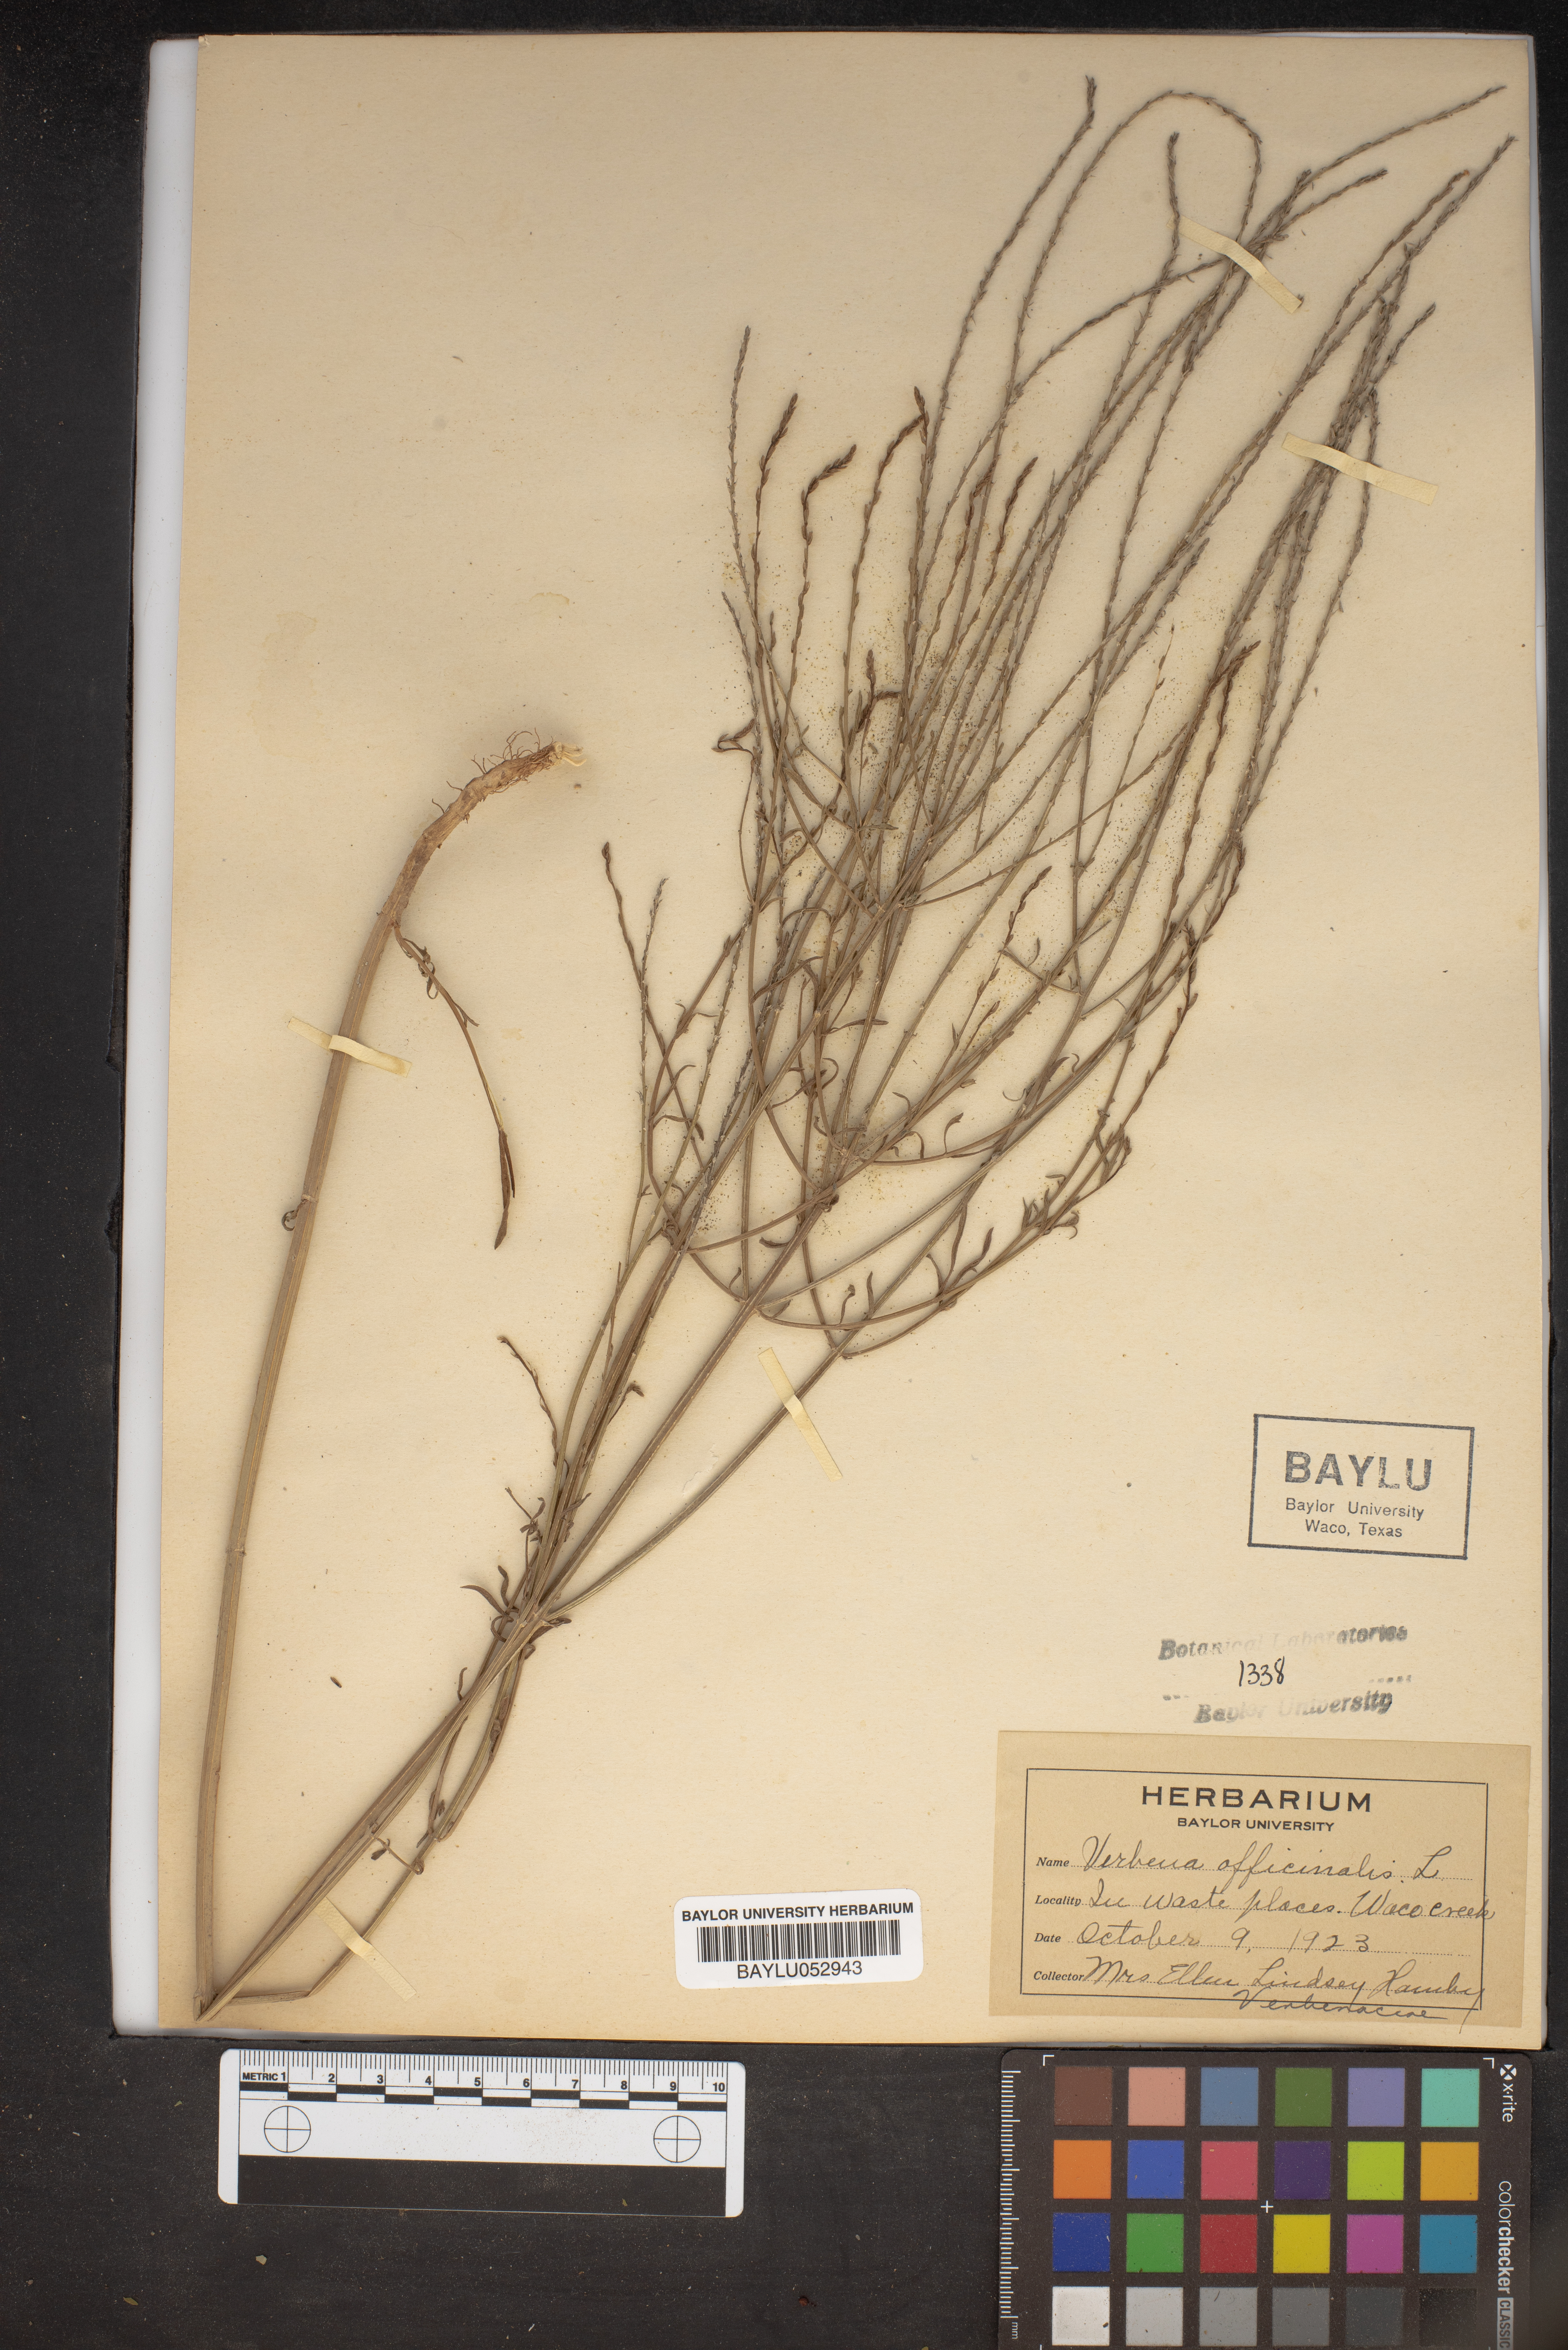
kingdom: Plantae
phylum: Tracheophyta
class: Magnoliopsida
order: Lamiales
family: Verbenaceae
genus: Verbena
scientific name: Verbena officinalis
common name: Vervain
